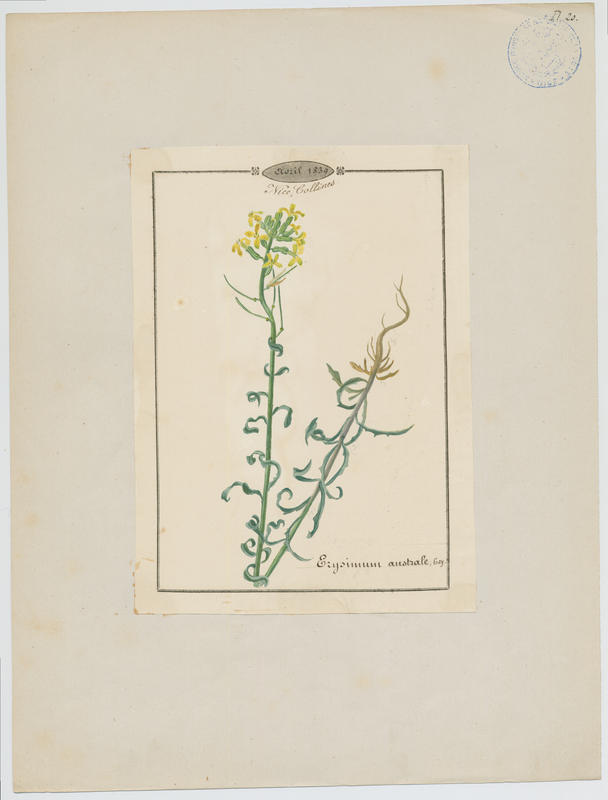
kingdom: Plantae
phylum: Tracheophyta
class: Magnoliopsida
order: Brassicales
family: Brassicaceae
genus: Erysimum
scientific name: Erysimum collisparsum
